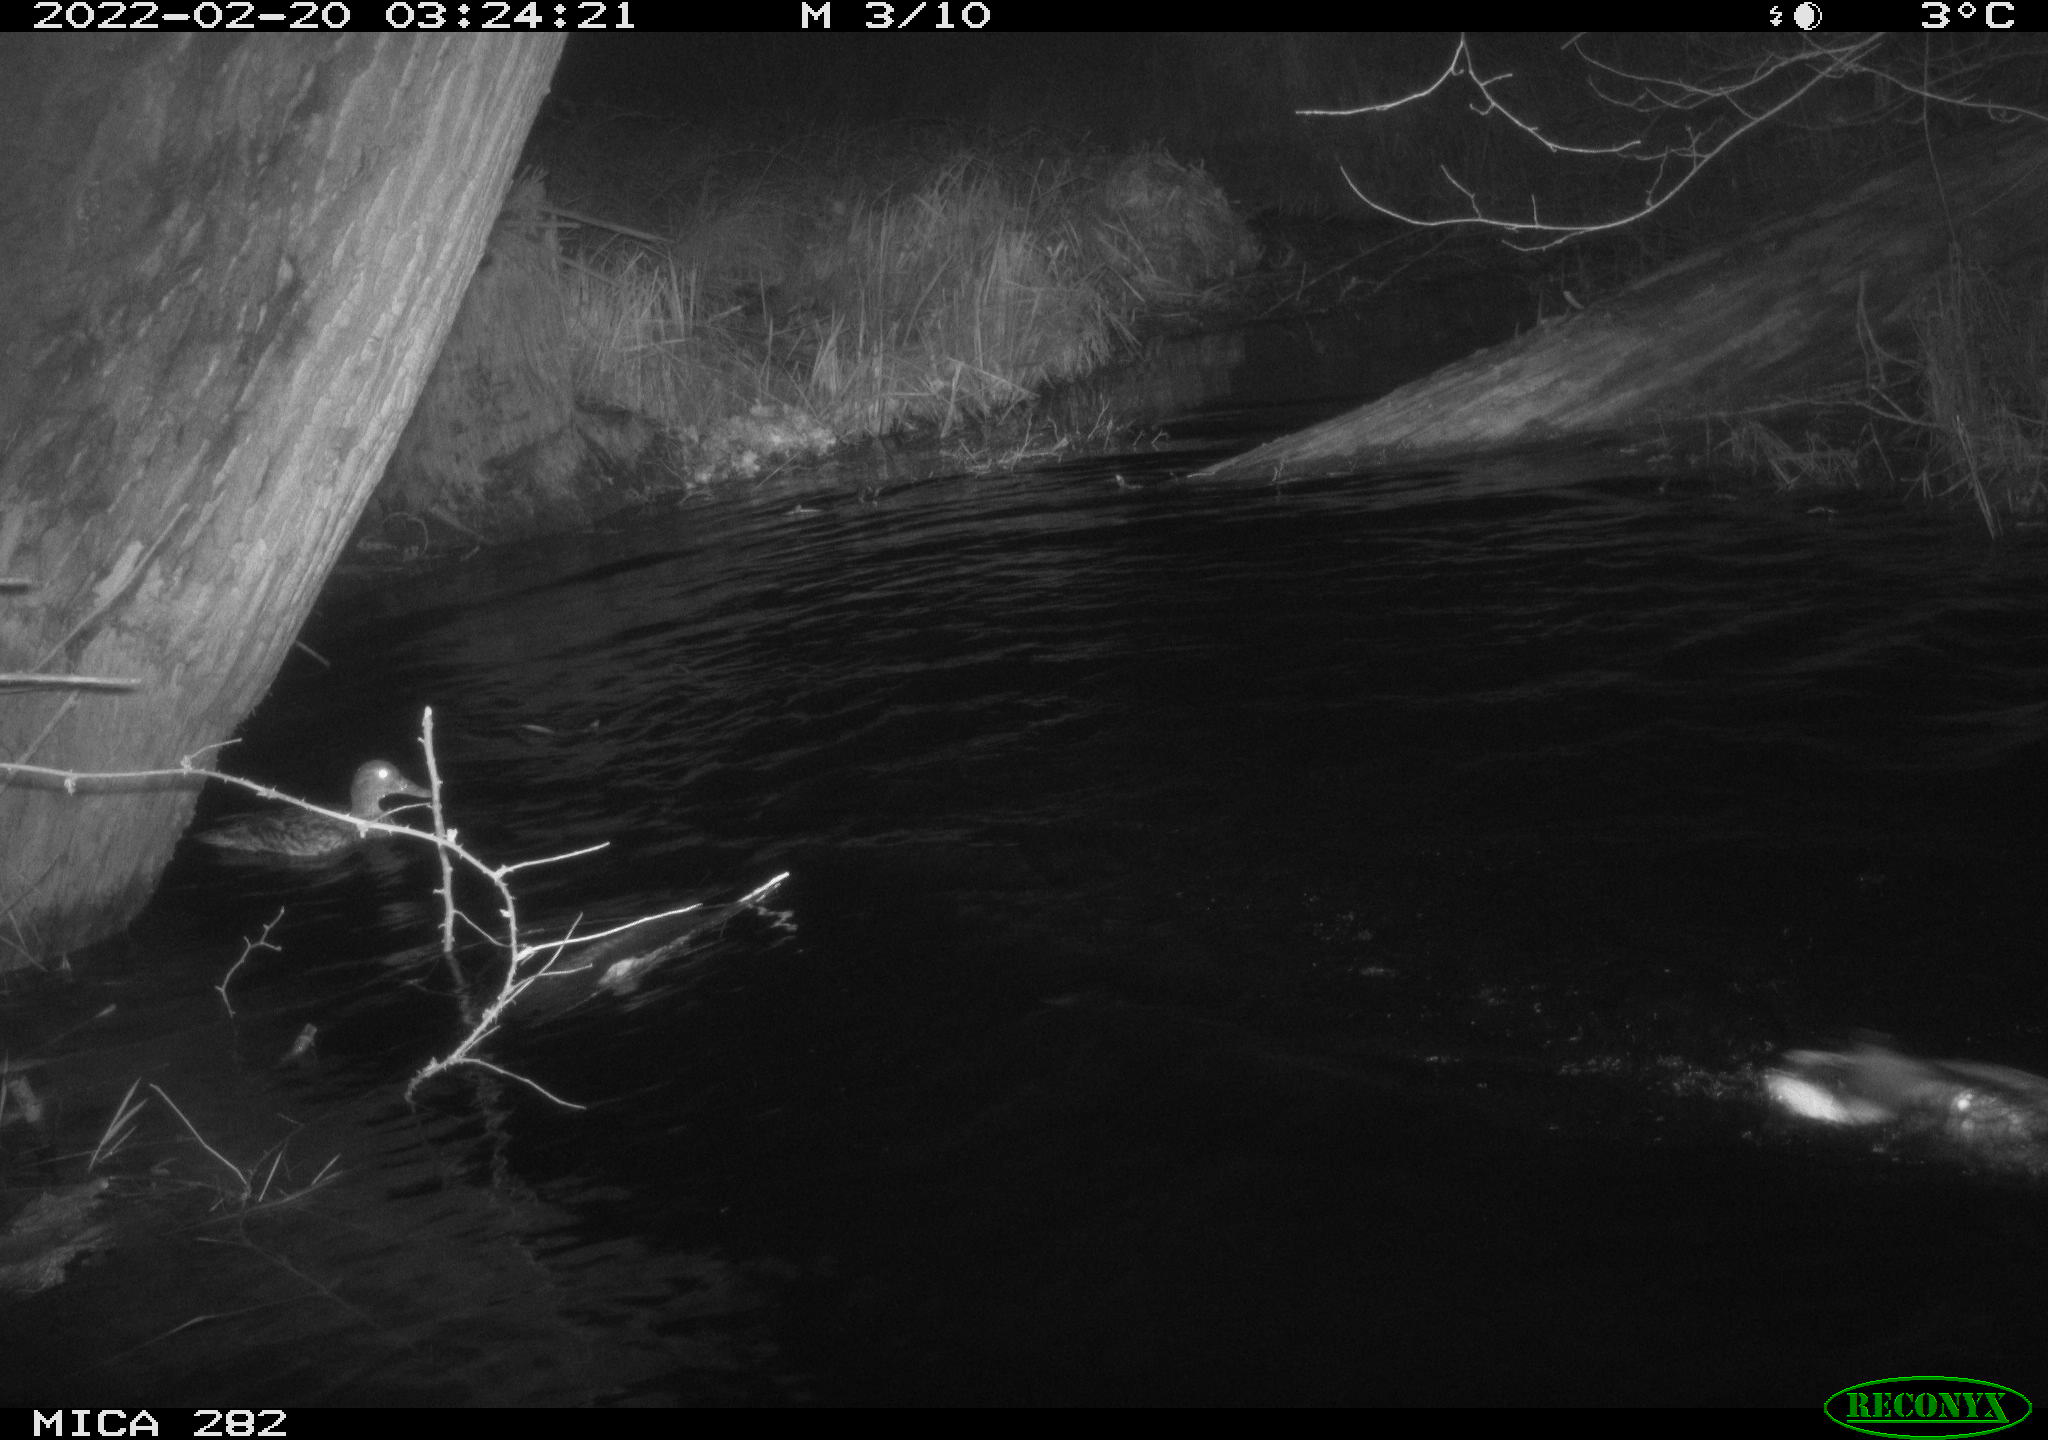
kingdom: Animalia
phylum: Chordata
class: Aves
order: Anseriformes
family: Anatidae
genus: Anas
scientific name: Anas platyrhynchos
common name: Mallard
